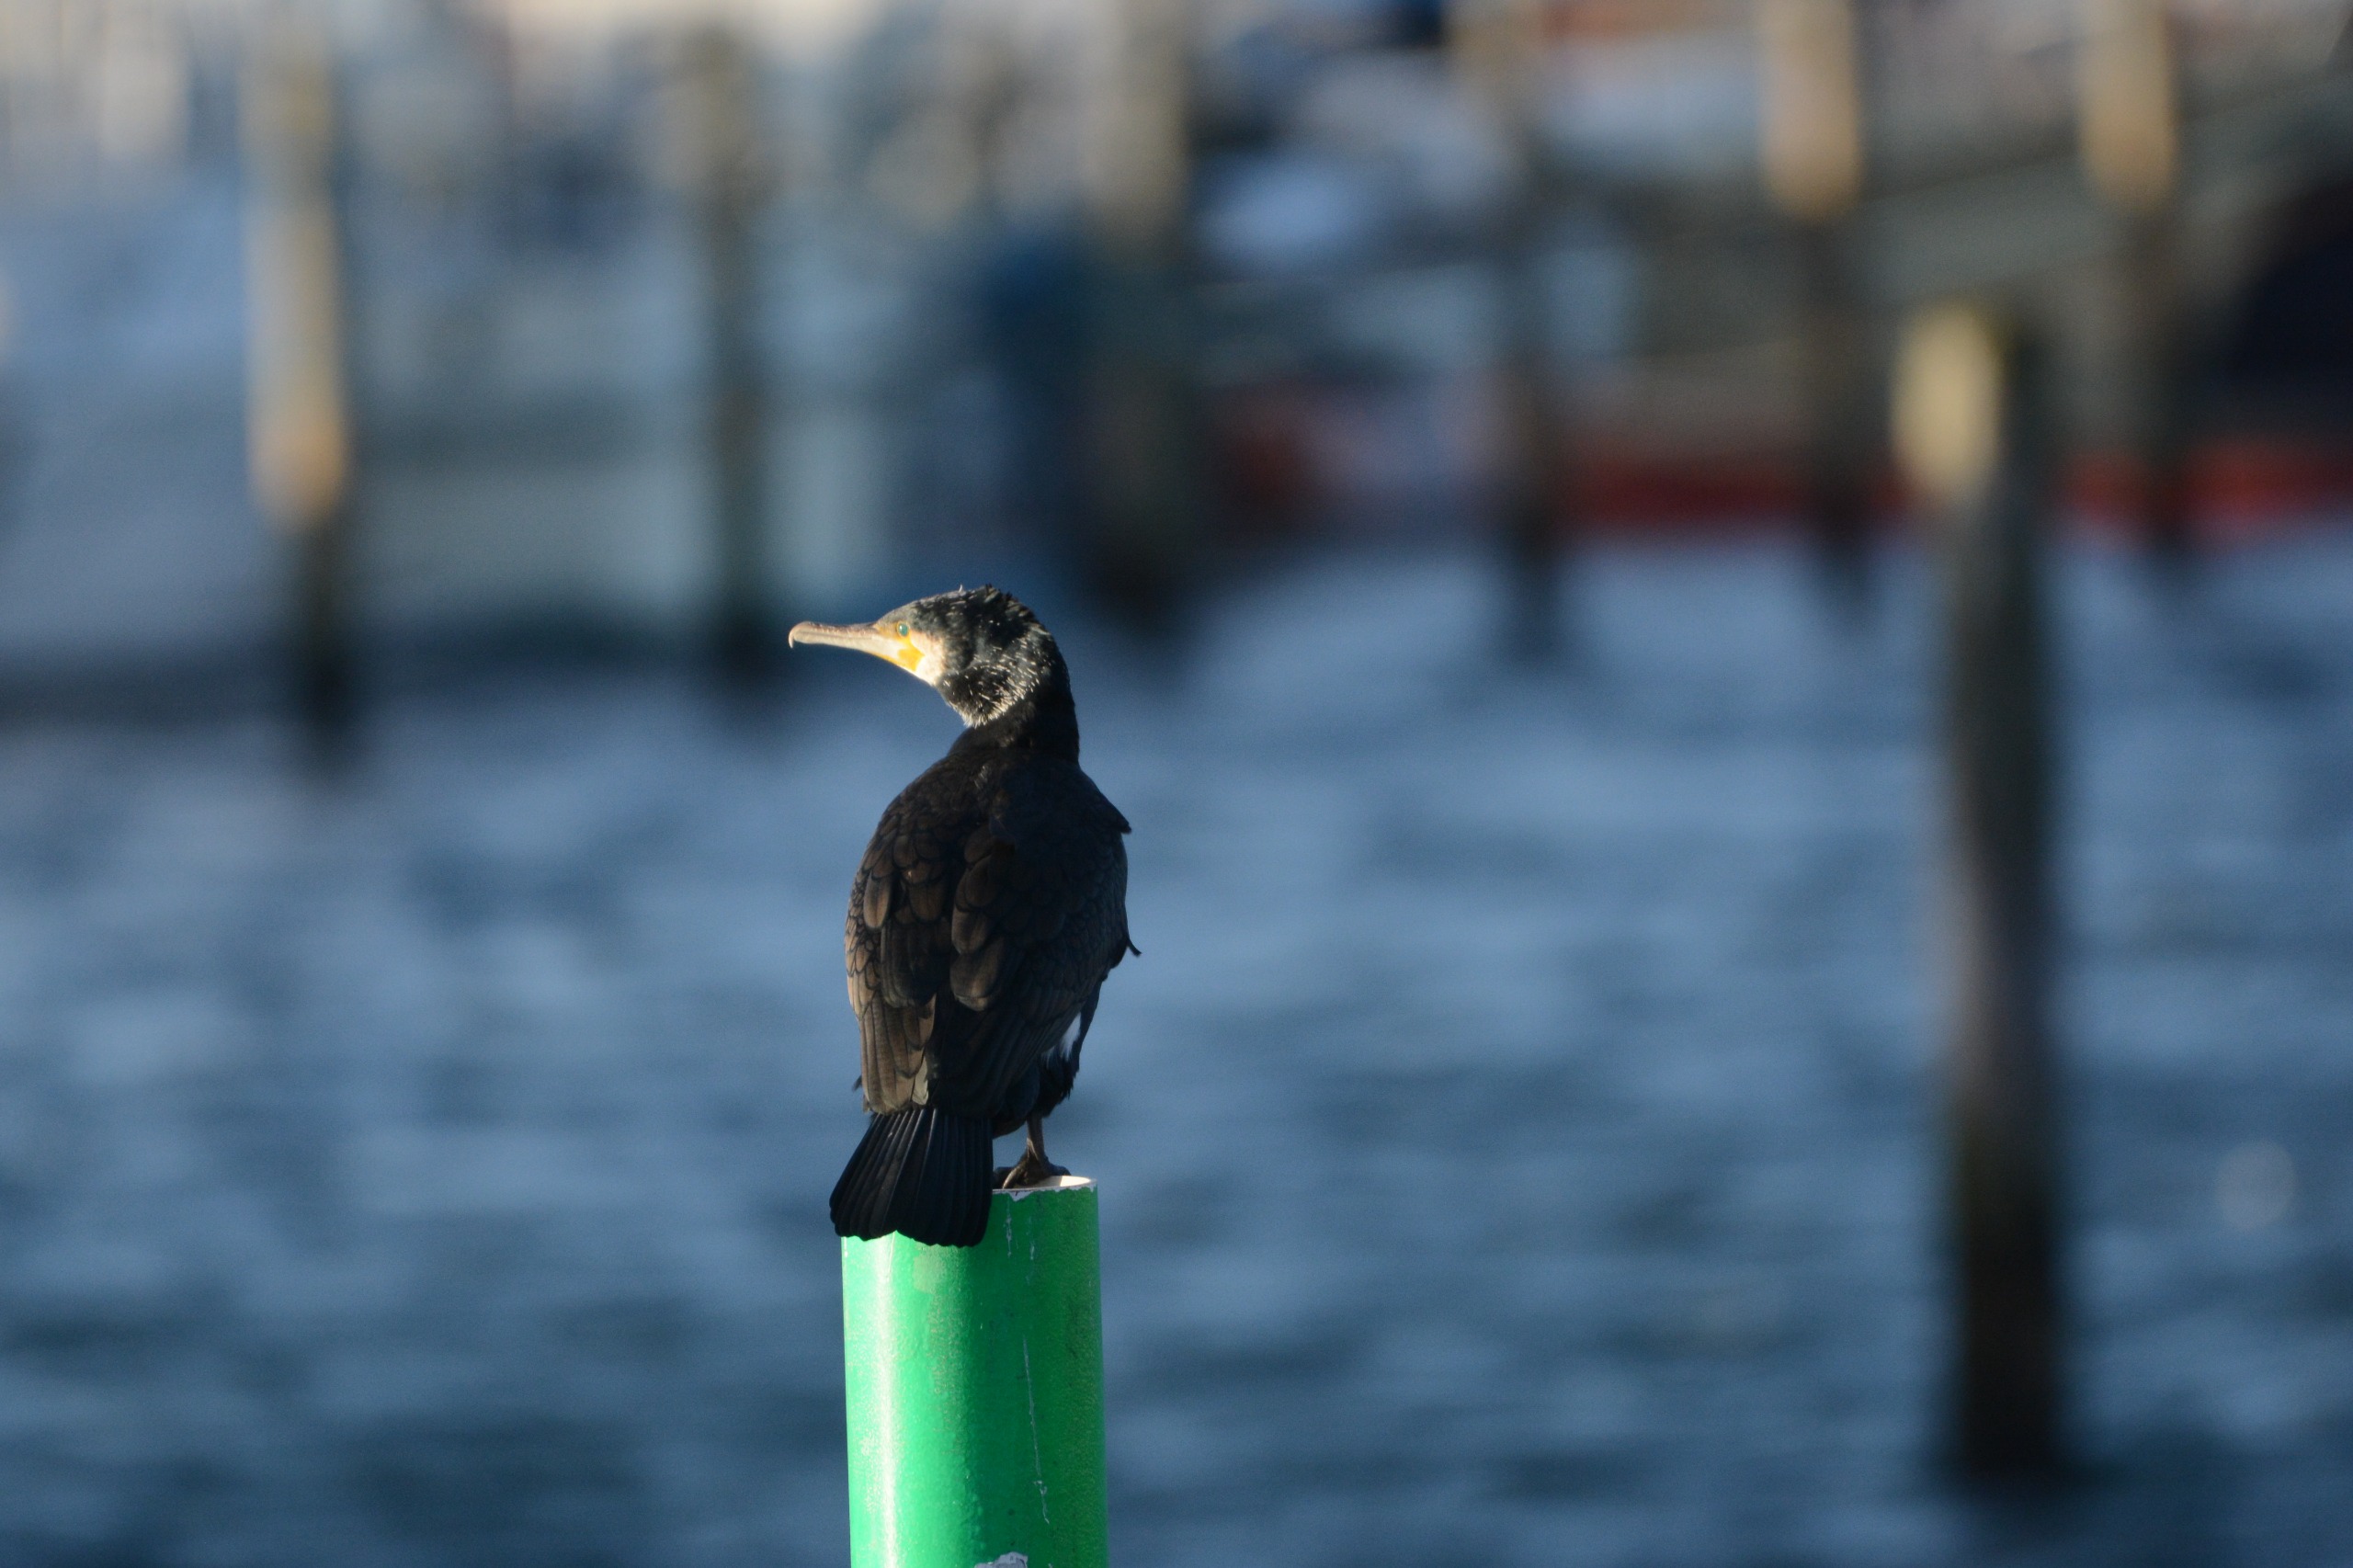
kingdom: Animalia
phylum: Chordata
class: Aves
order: Suliformes
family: Phalacrocoracidae
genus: Phalacrocorax
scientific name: Phalacrocorax carbo
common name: Skarv
